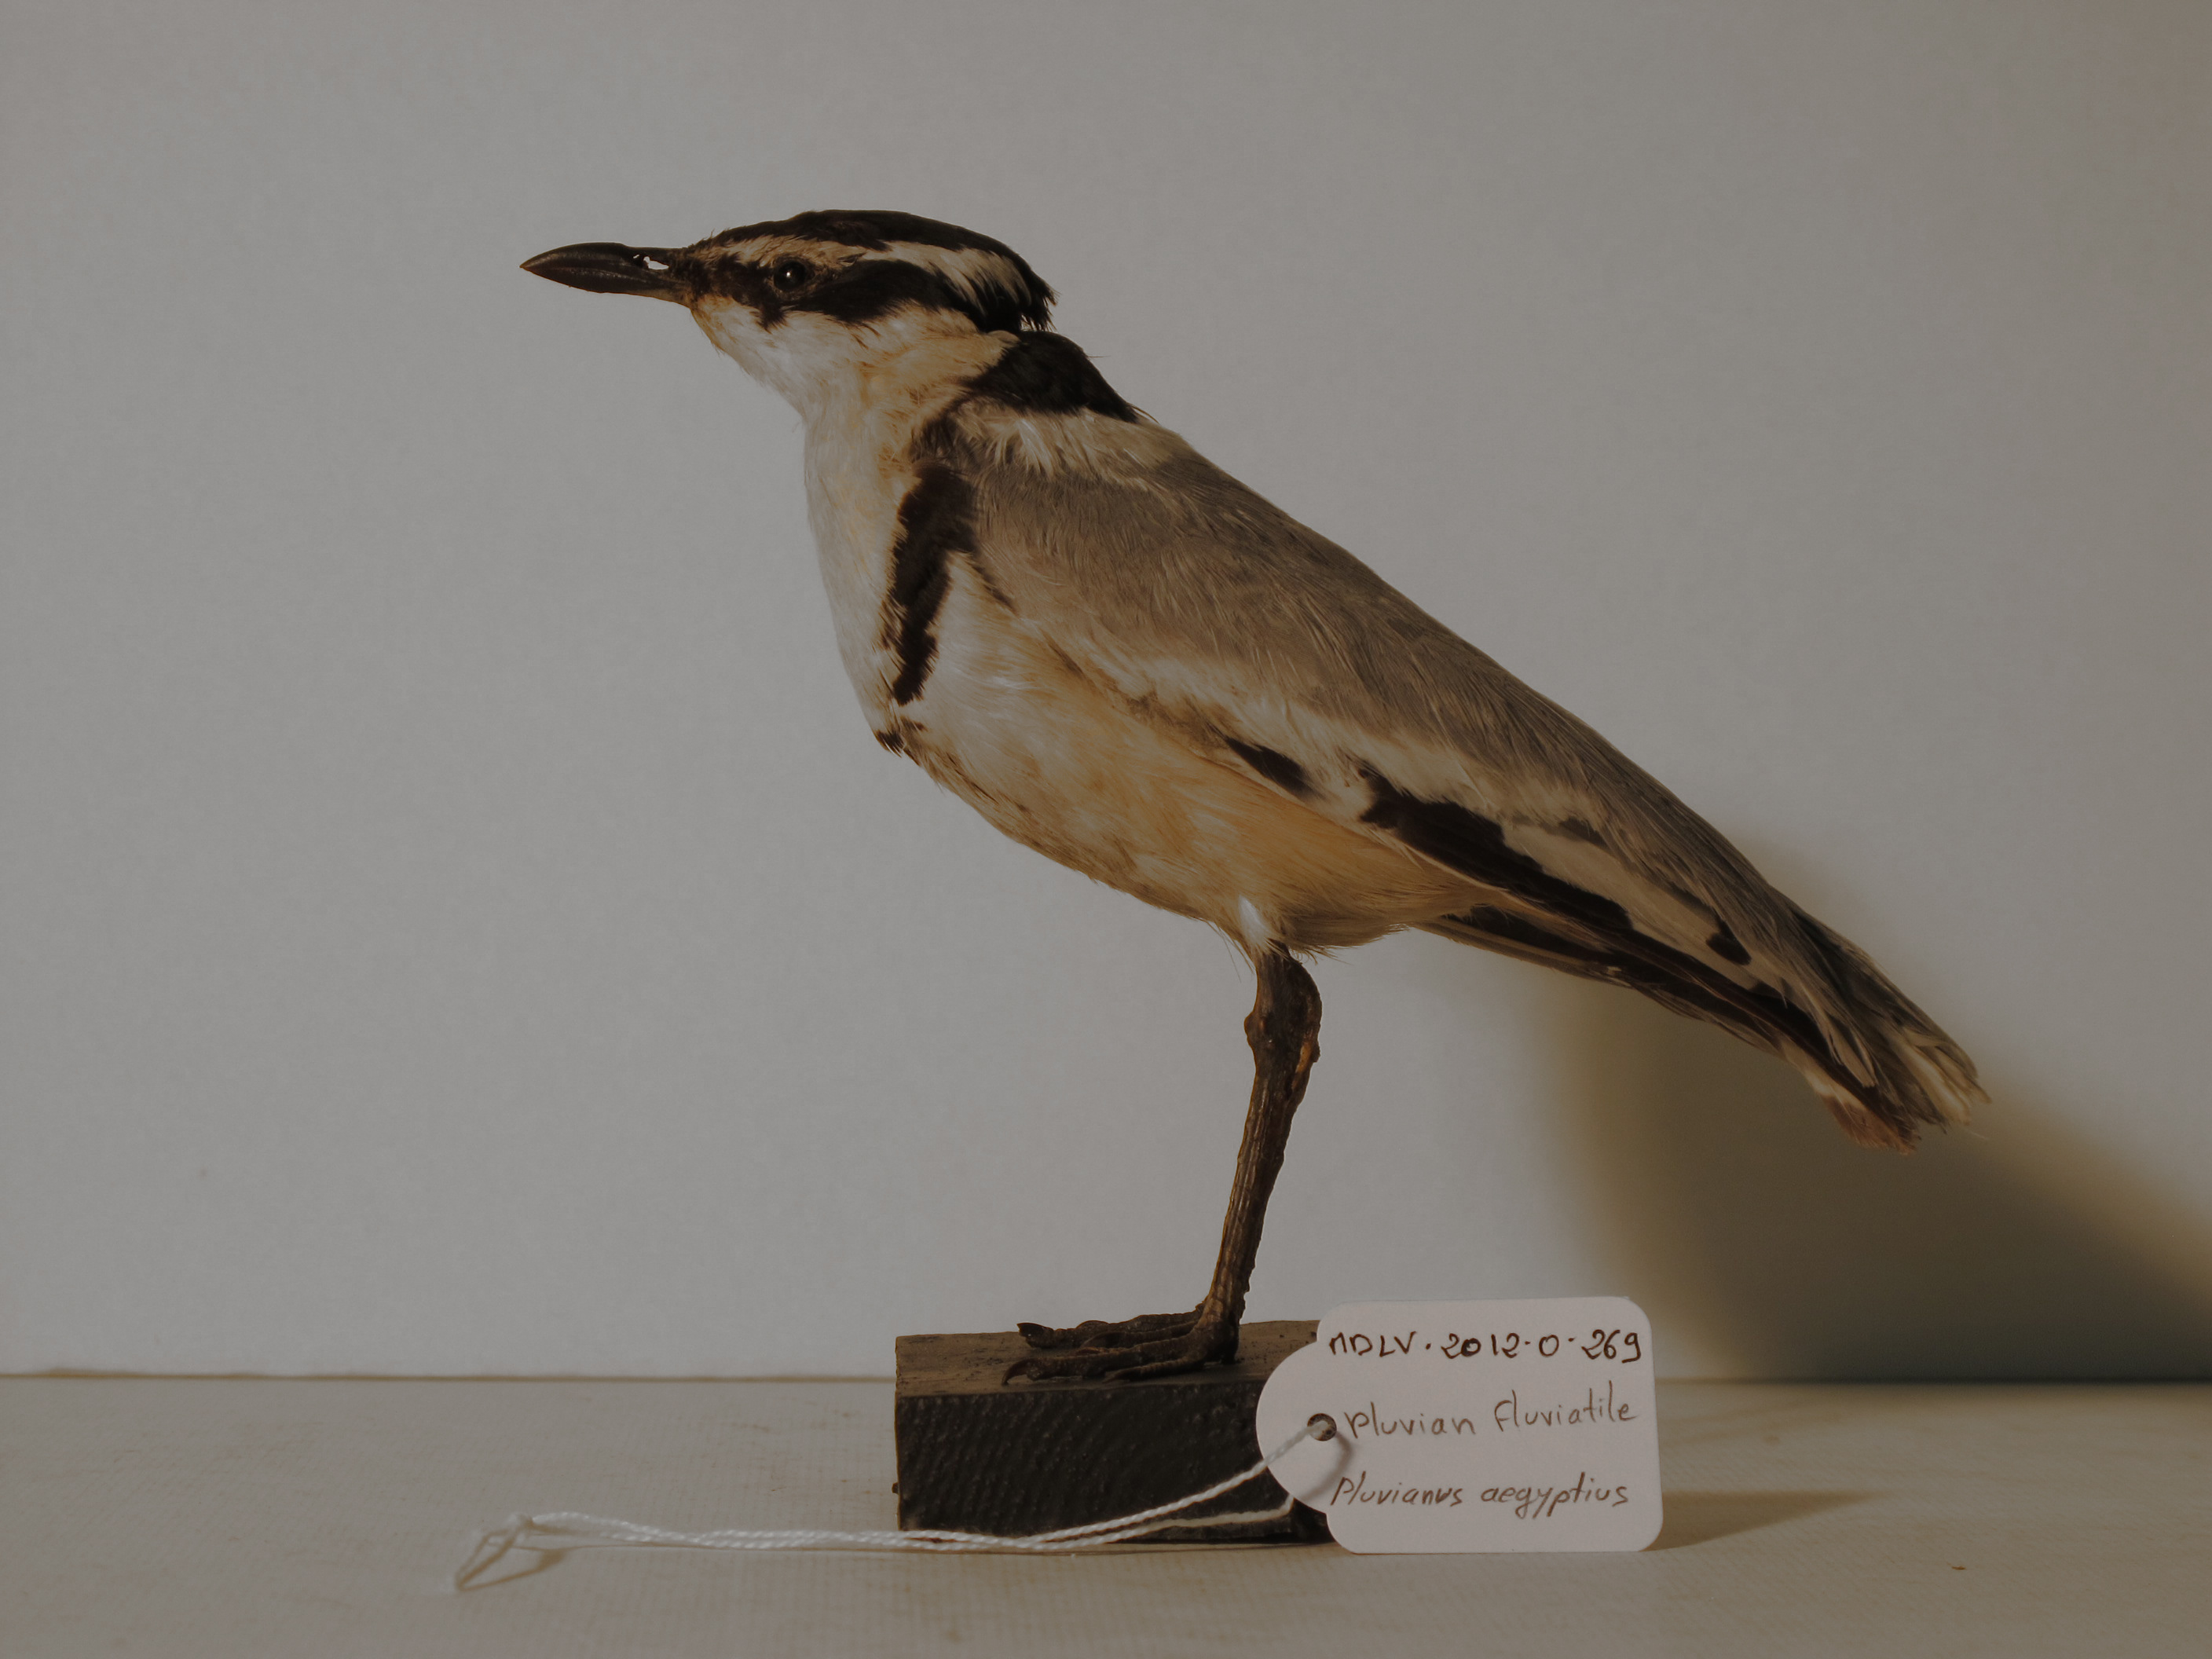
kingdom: Animalia
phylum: Chordata
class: Aves
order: Charadriiformes
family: Pluvianidae
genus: Pluvianus
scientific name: Pluvianus aegyptius
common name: Egyptian Plover
